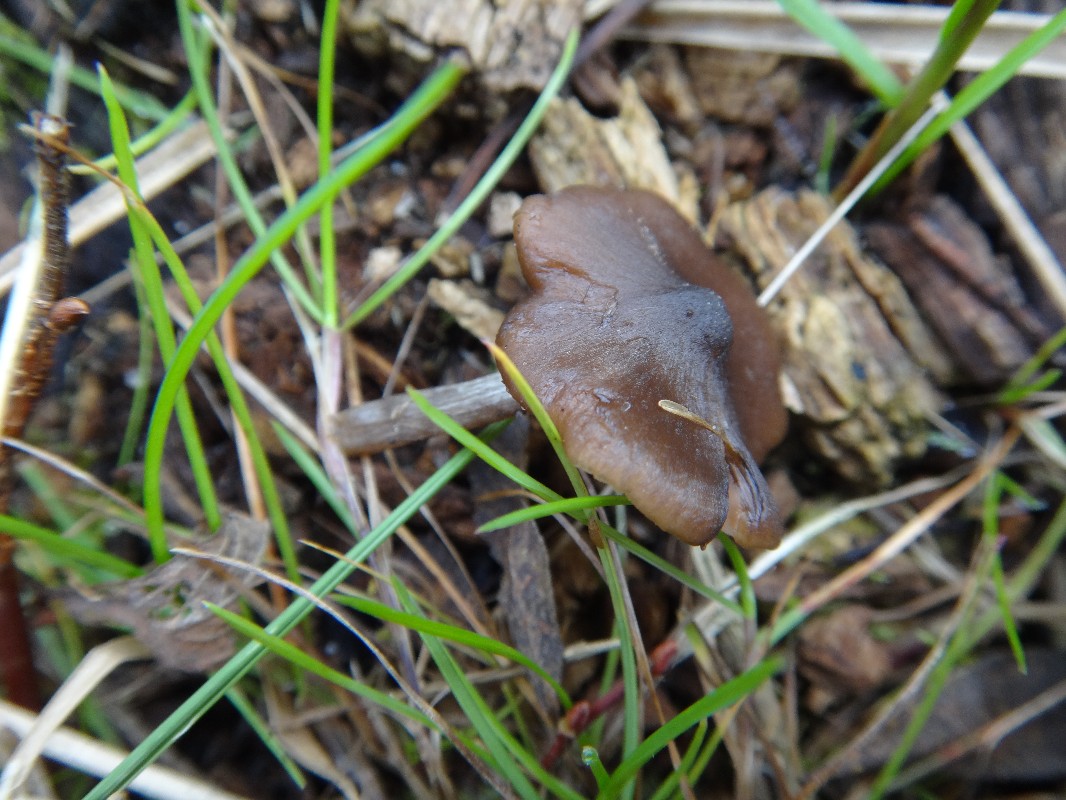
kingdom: Fungi
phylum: Basidiomycota
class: Agaricomycetes
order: Agaricales
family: Entolomataceae
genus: Entoloma
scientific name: Entoloma sericeum
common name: silkeglinsende rødblad
